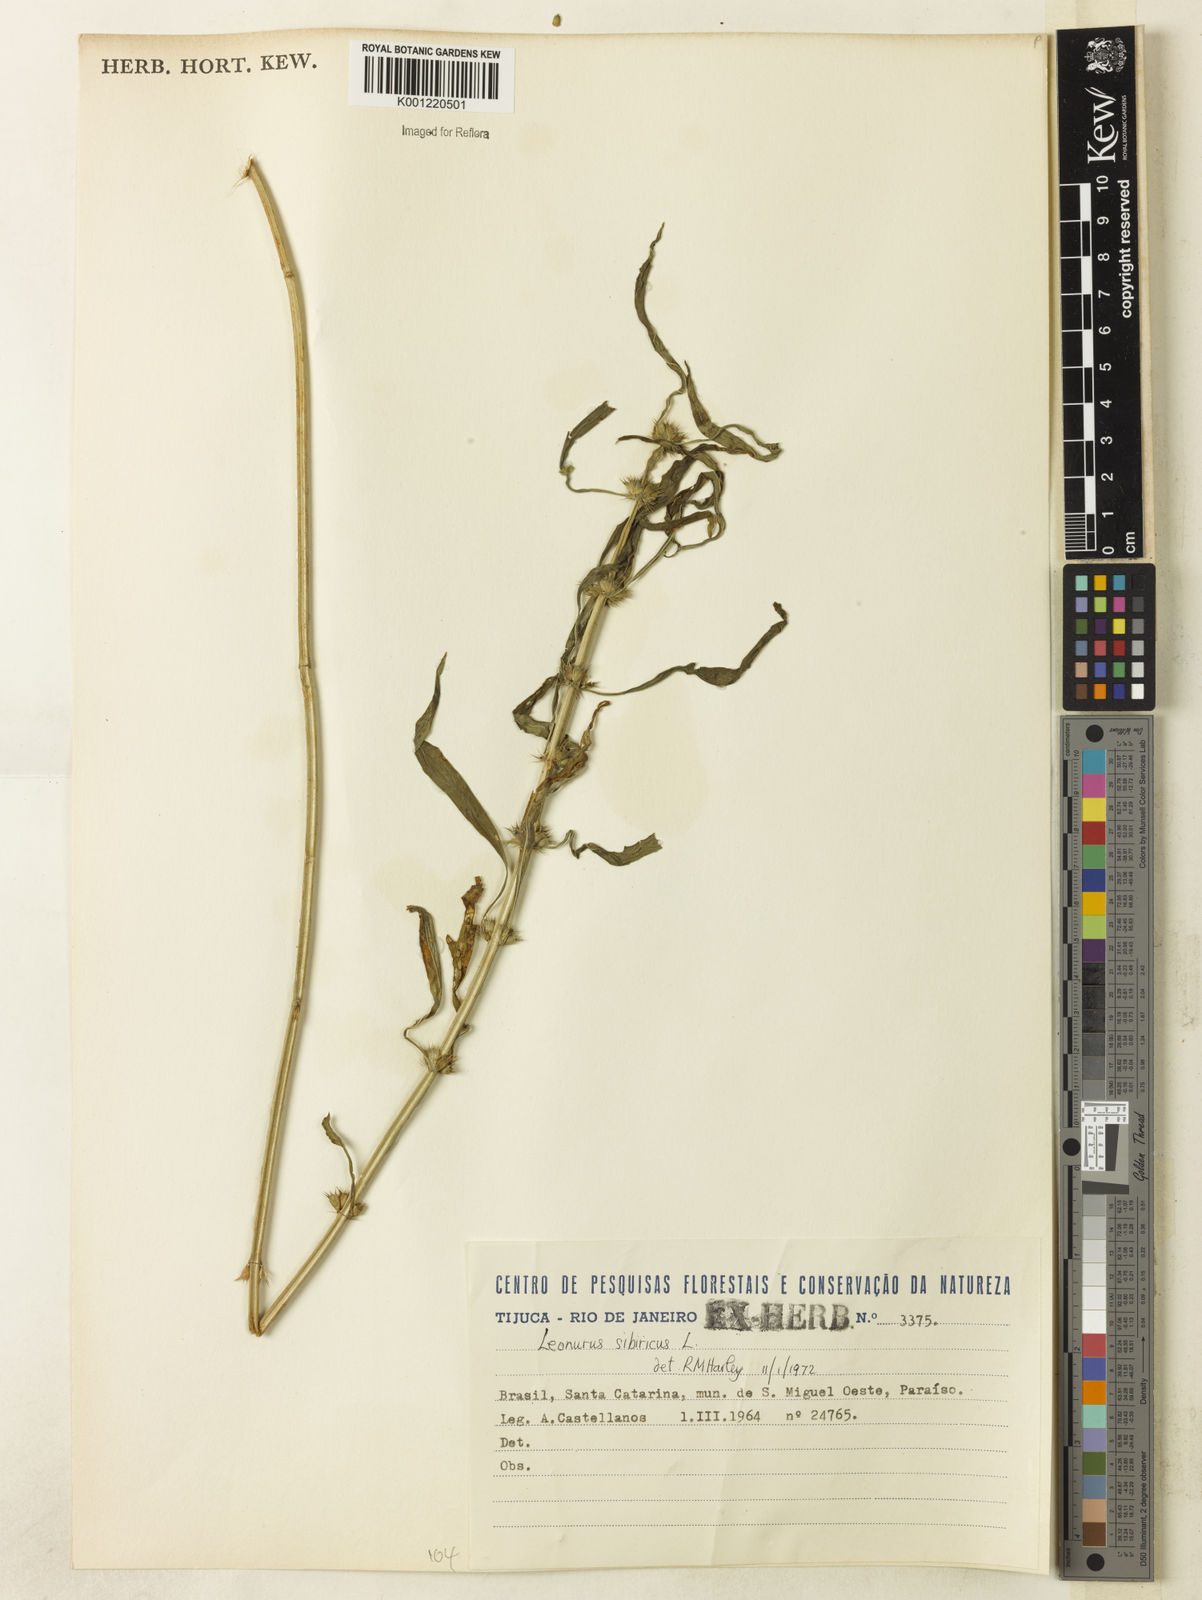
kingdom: Plantae
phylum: Tracheophyta
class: Magnoliopsida
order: Lamiales
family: Lamiaceae
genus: Leonurus
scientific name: Leonurus japonicus
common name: Honeyweed
